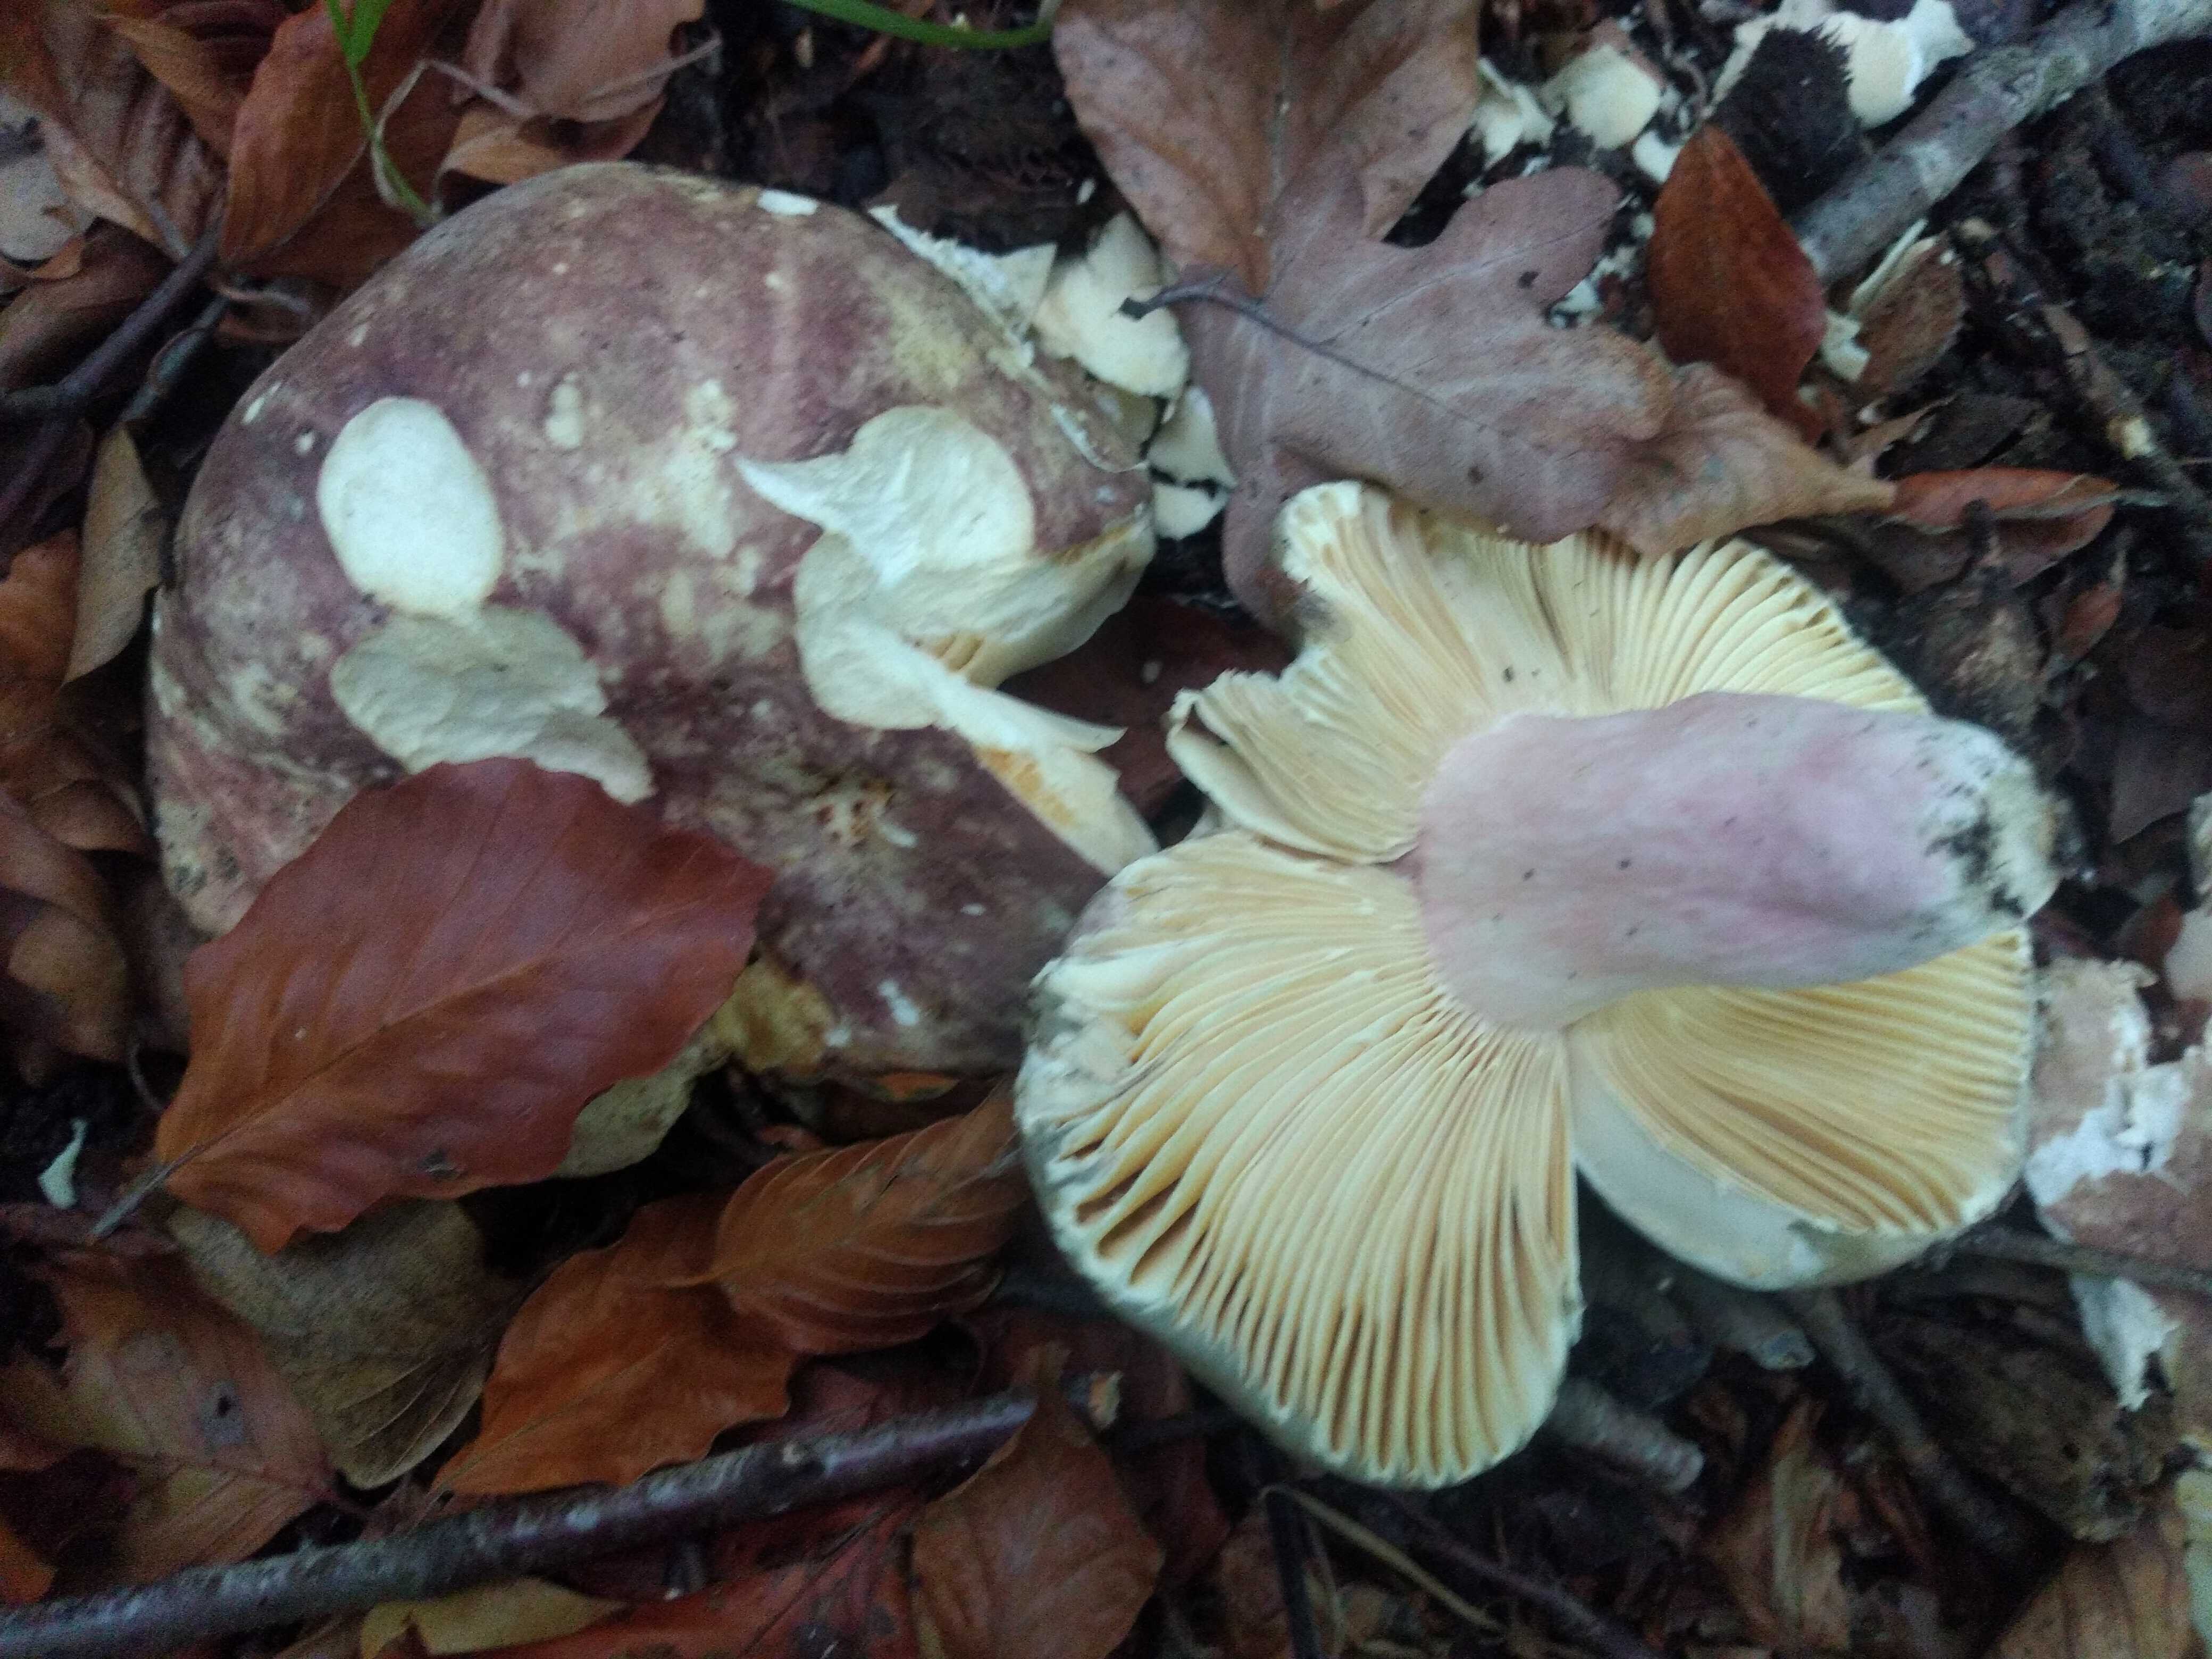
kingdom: Fungi
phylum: Basidiomycota
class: Agaricomycetes
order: Russulales
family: Russulaceae
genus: Russula
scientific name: Russula olivacea
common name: stor skørhat
